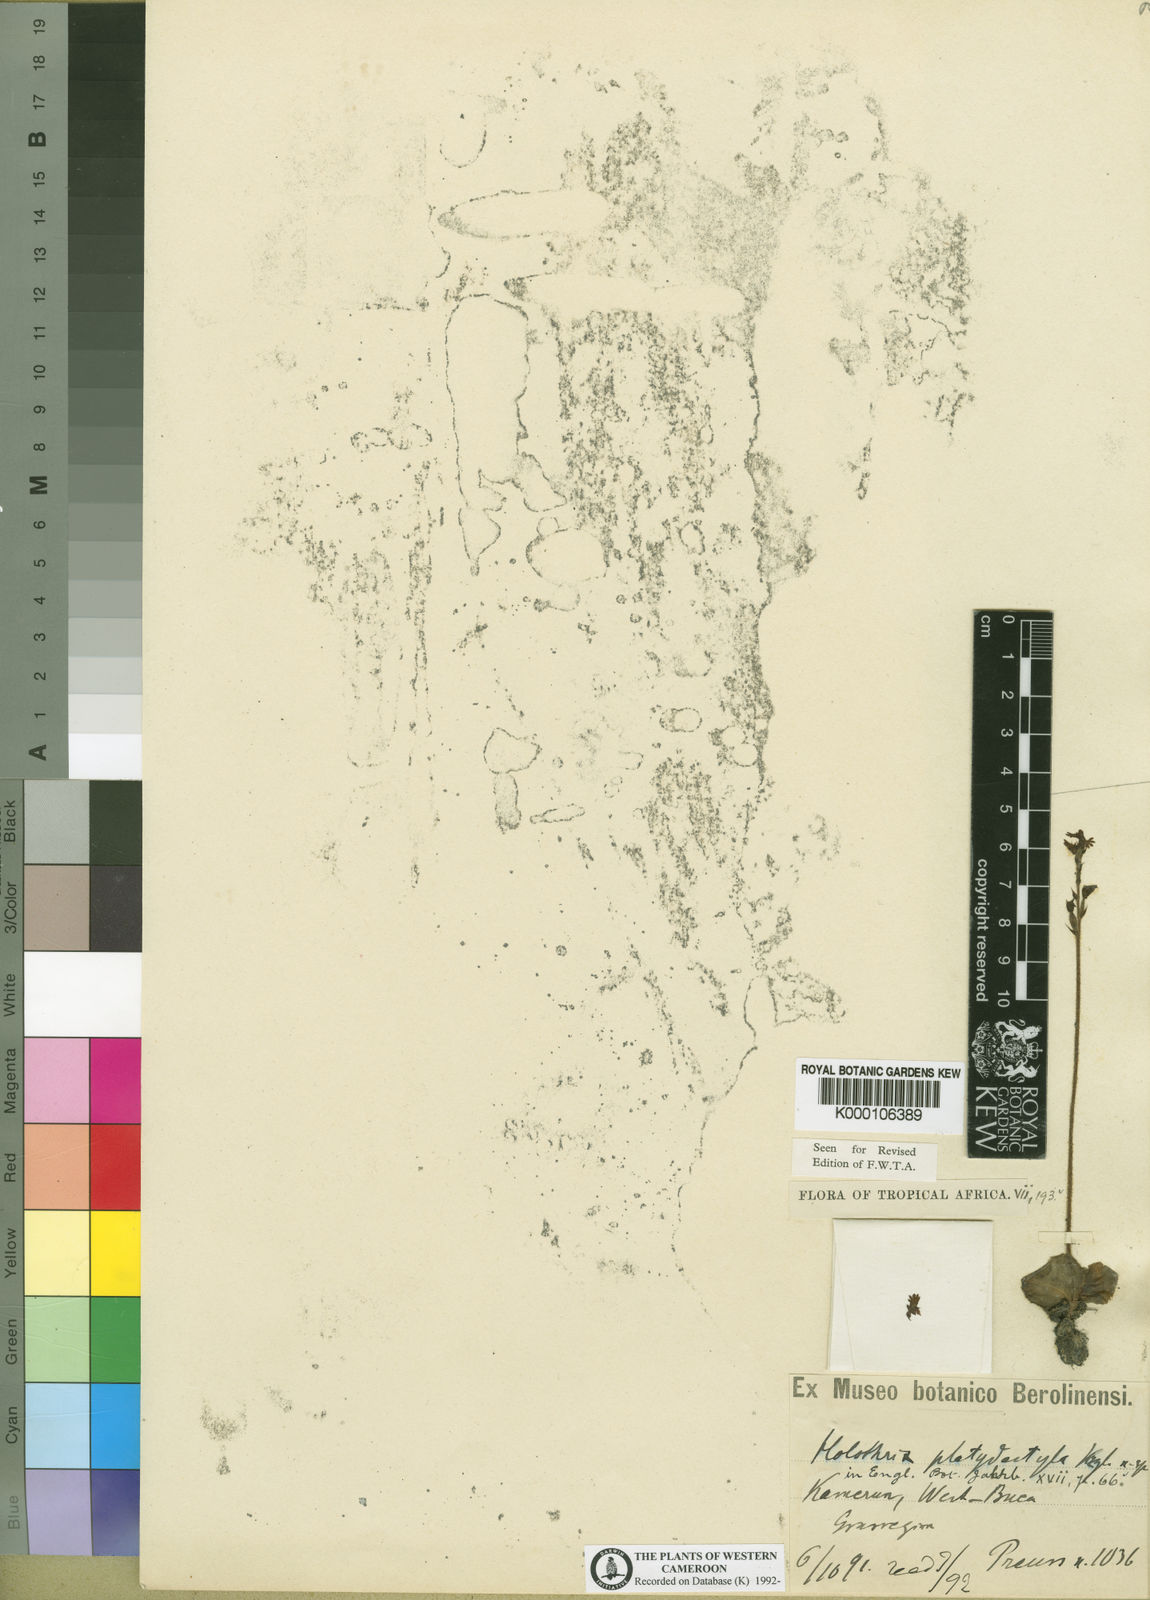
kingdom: Plantae
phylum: Tracheophyta
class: Liliopsida
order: Asparagales
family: Orchidaceae
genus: Holothrix
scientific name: Holothrix tridentata
